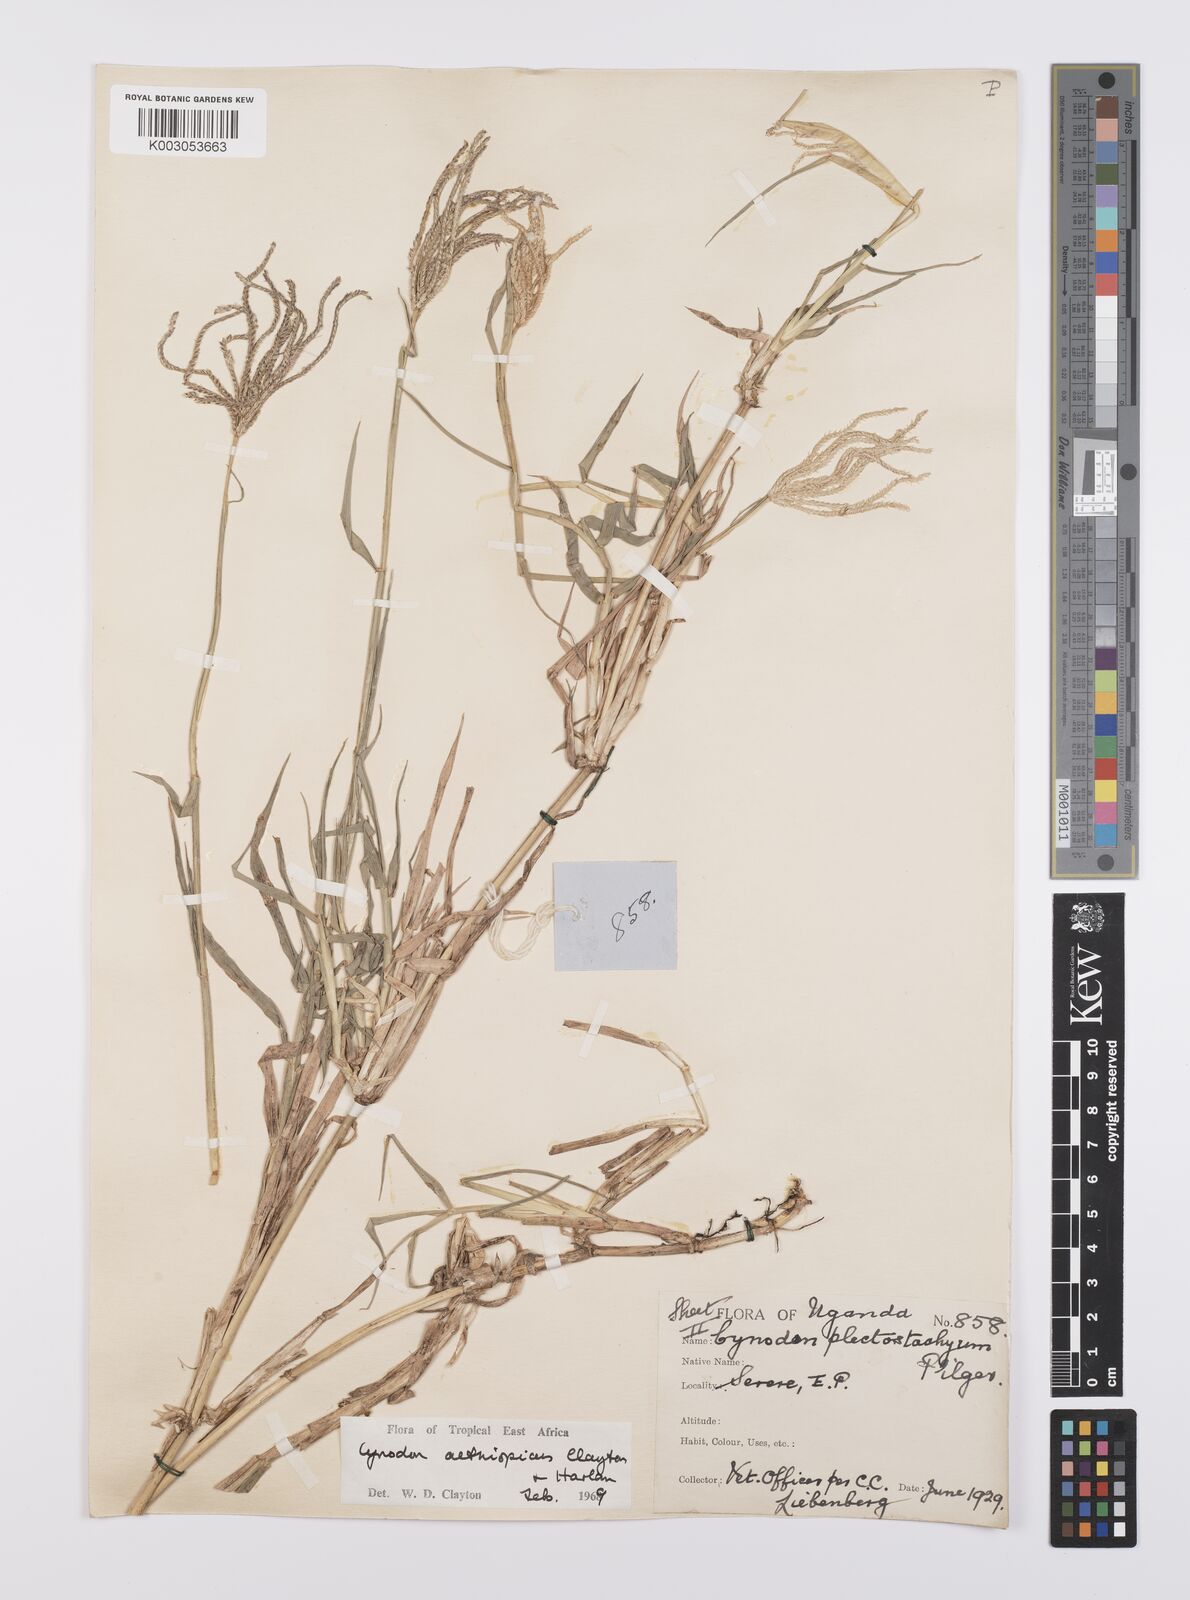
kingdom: Plantae
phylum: Tracheophyta
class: Liliopsida
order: Poales
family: Poaceae
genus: Cynodon
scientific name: Cynodon aethiopicus
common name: Ethiopian dogstooth grass
